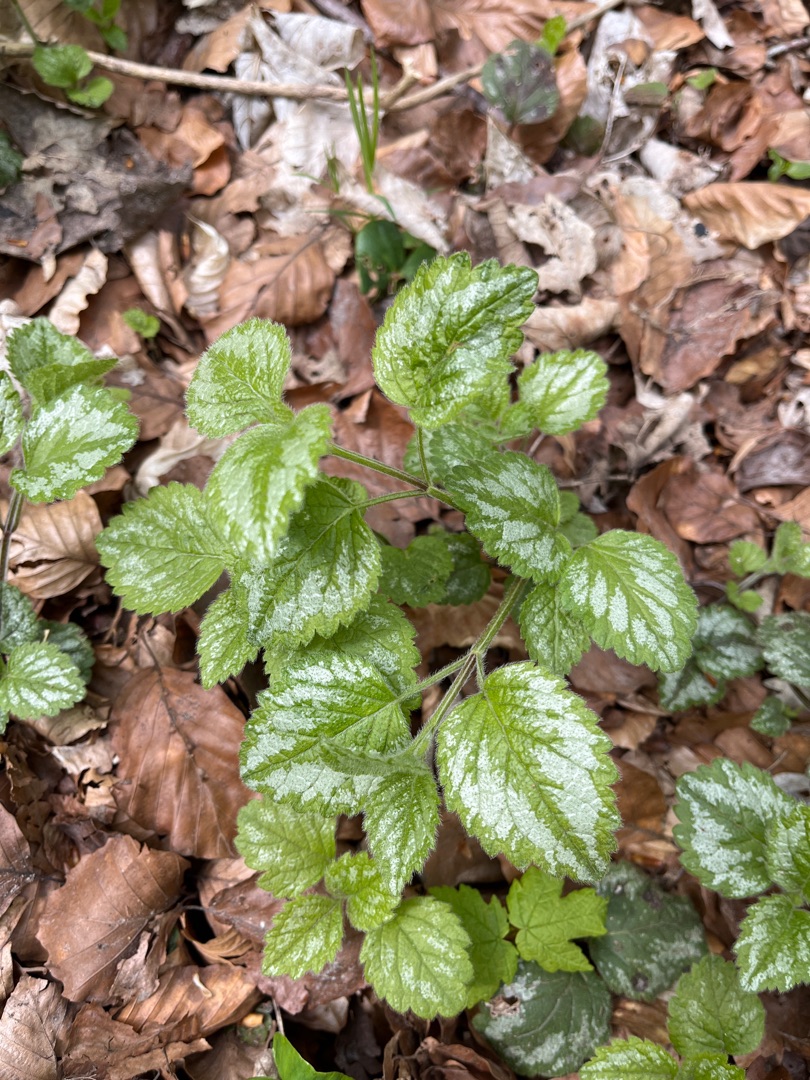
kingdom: Plantae
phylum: Tracheophyta
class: Magnoliopsida
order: Lamiales
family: Lamiaceae
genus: Lamium
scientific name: Lamium galeobdolon
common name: Have-guldnælde
